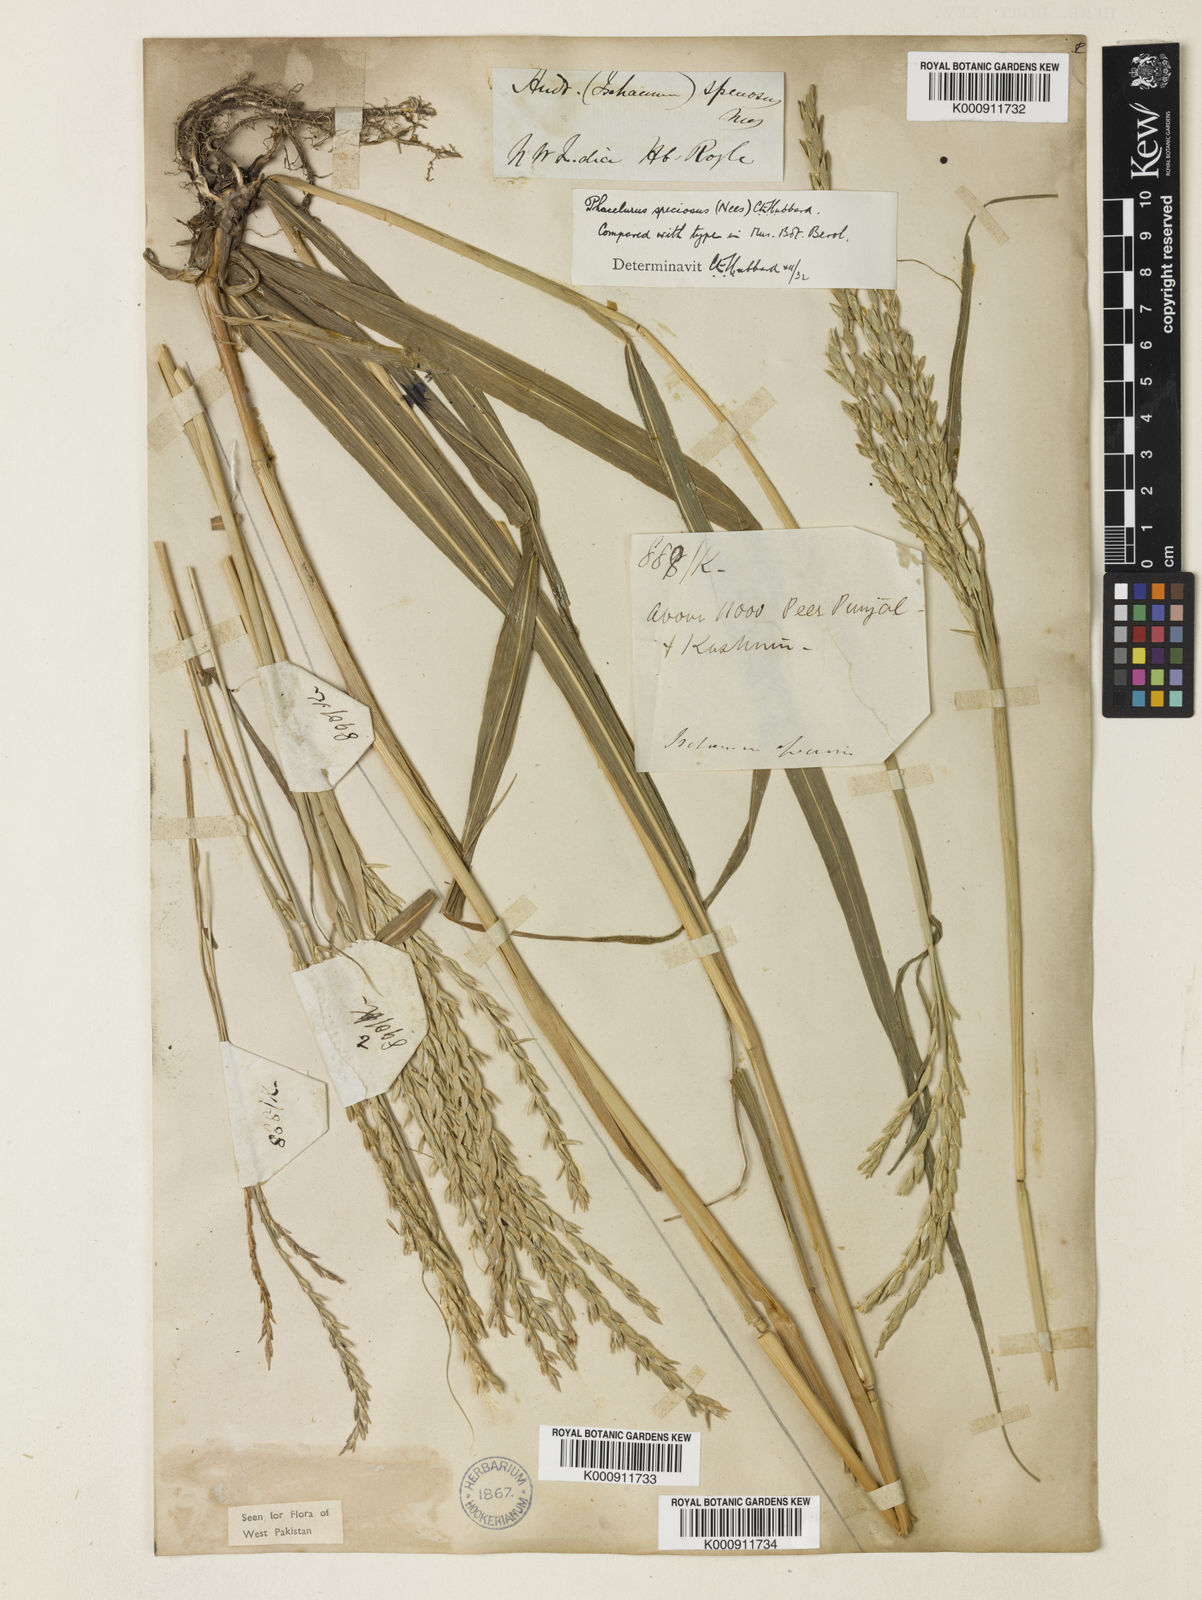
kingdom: Plantae
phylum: Tracheophyta
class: Liliopsida
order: Poales
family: Poaceae
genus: Phacelurus
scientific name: Phacelurus speciosus
